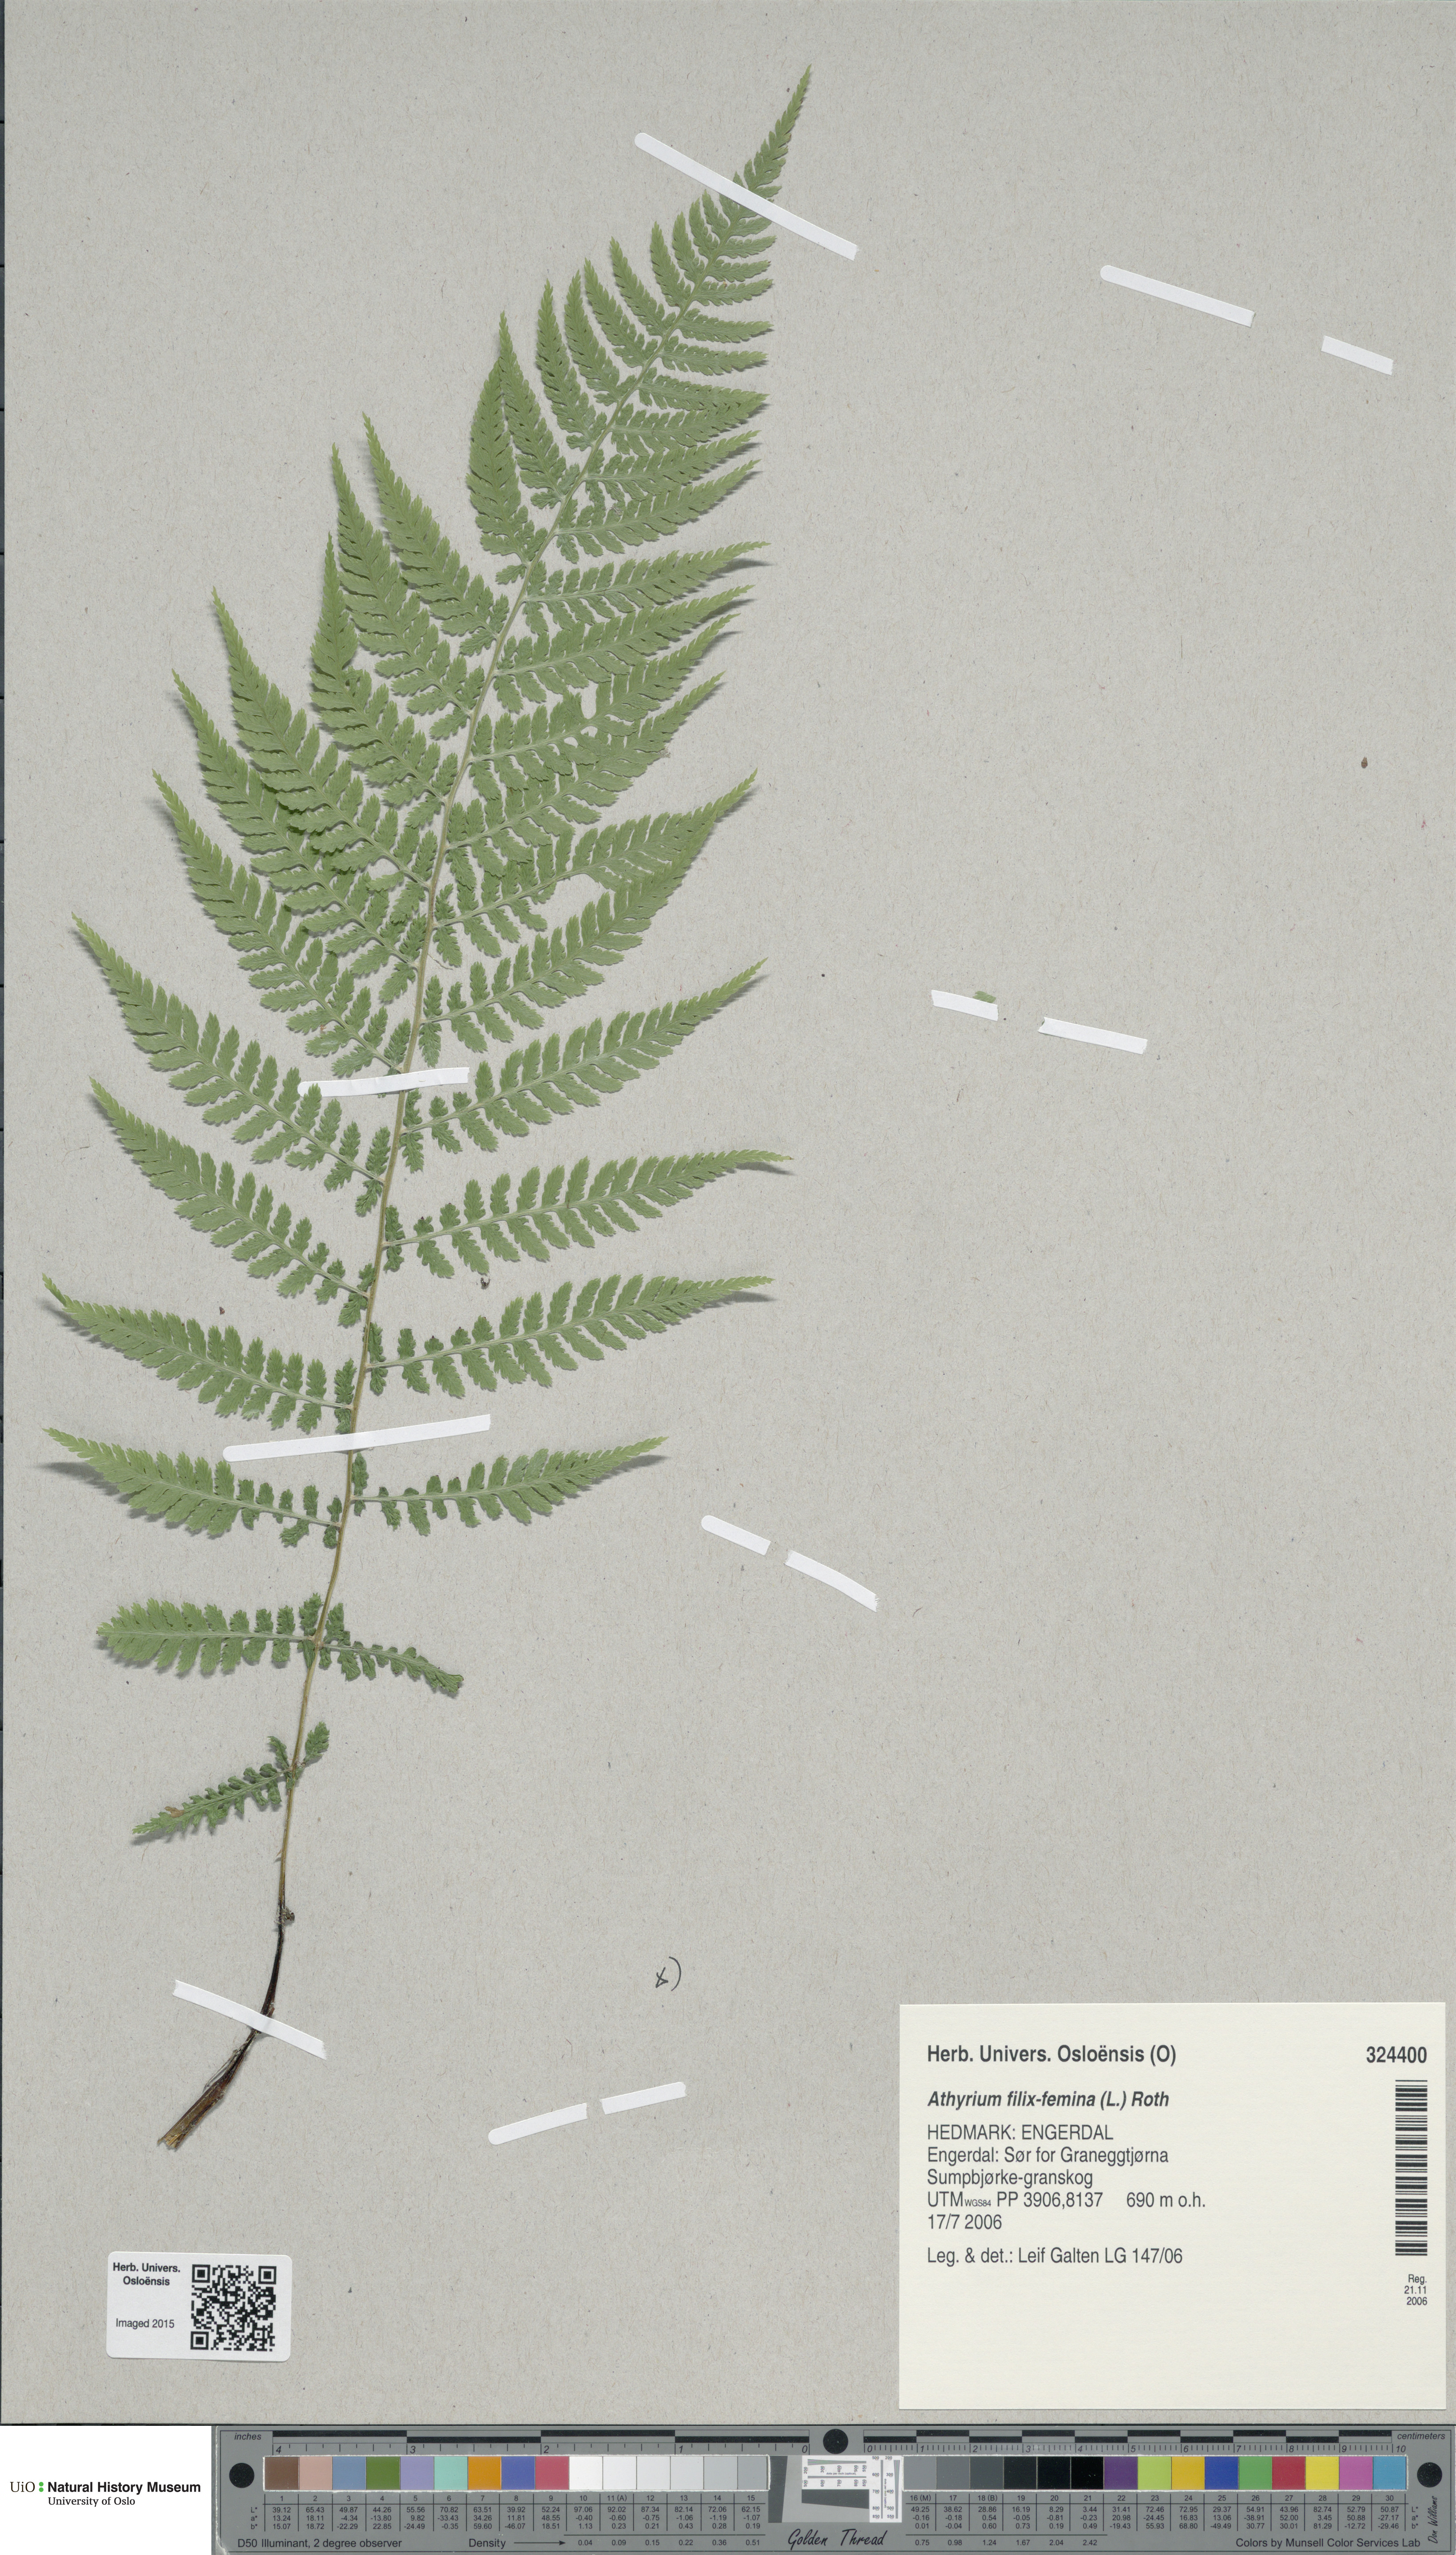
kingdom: Plantae
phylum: Tracheophyta
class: Polypodiopsida
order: Polypodiales
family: Athyriaceae
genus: Athyrium
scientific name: Athyrium filix-femina
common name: Lady fern
